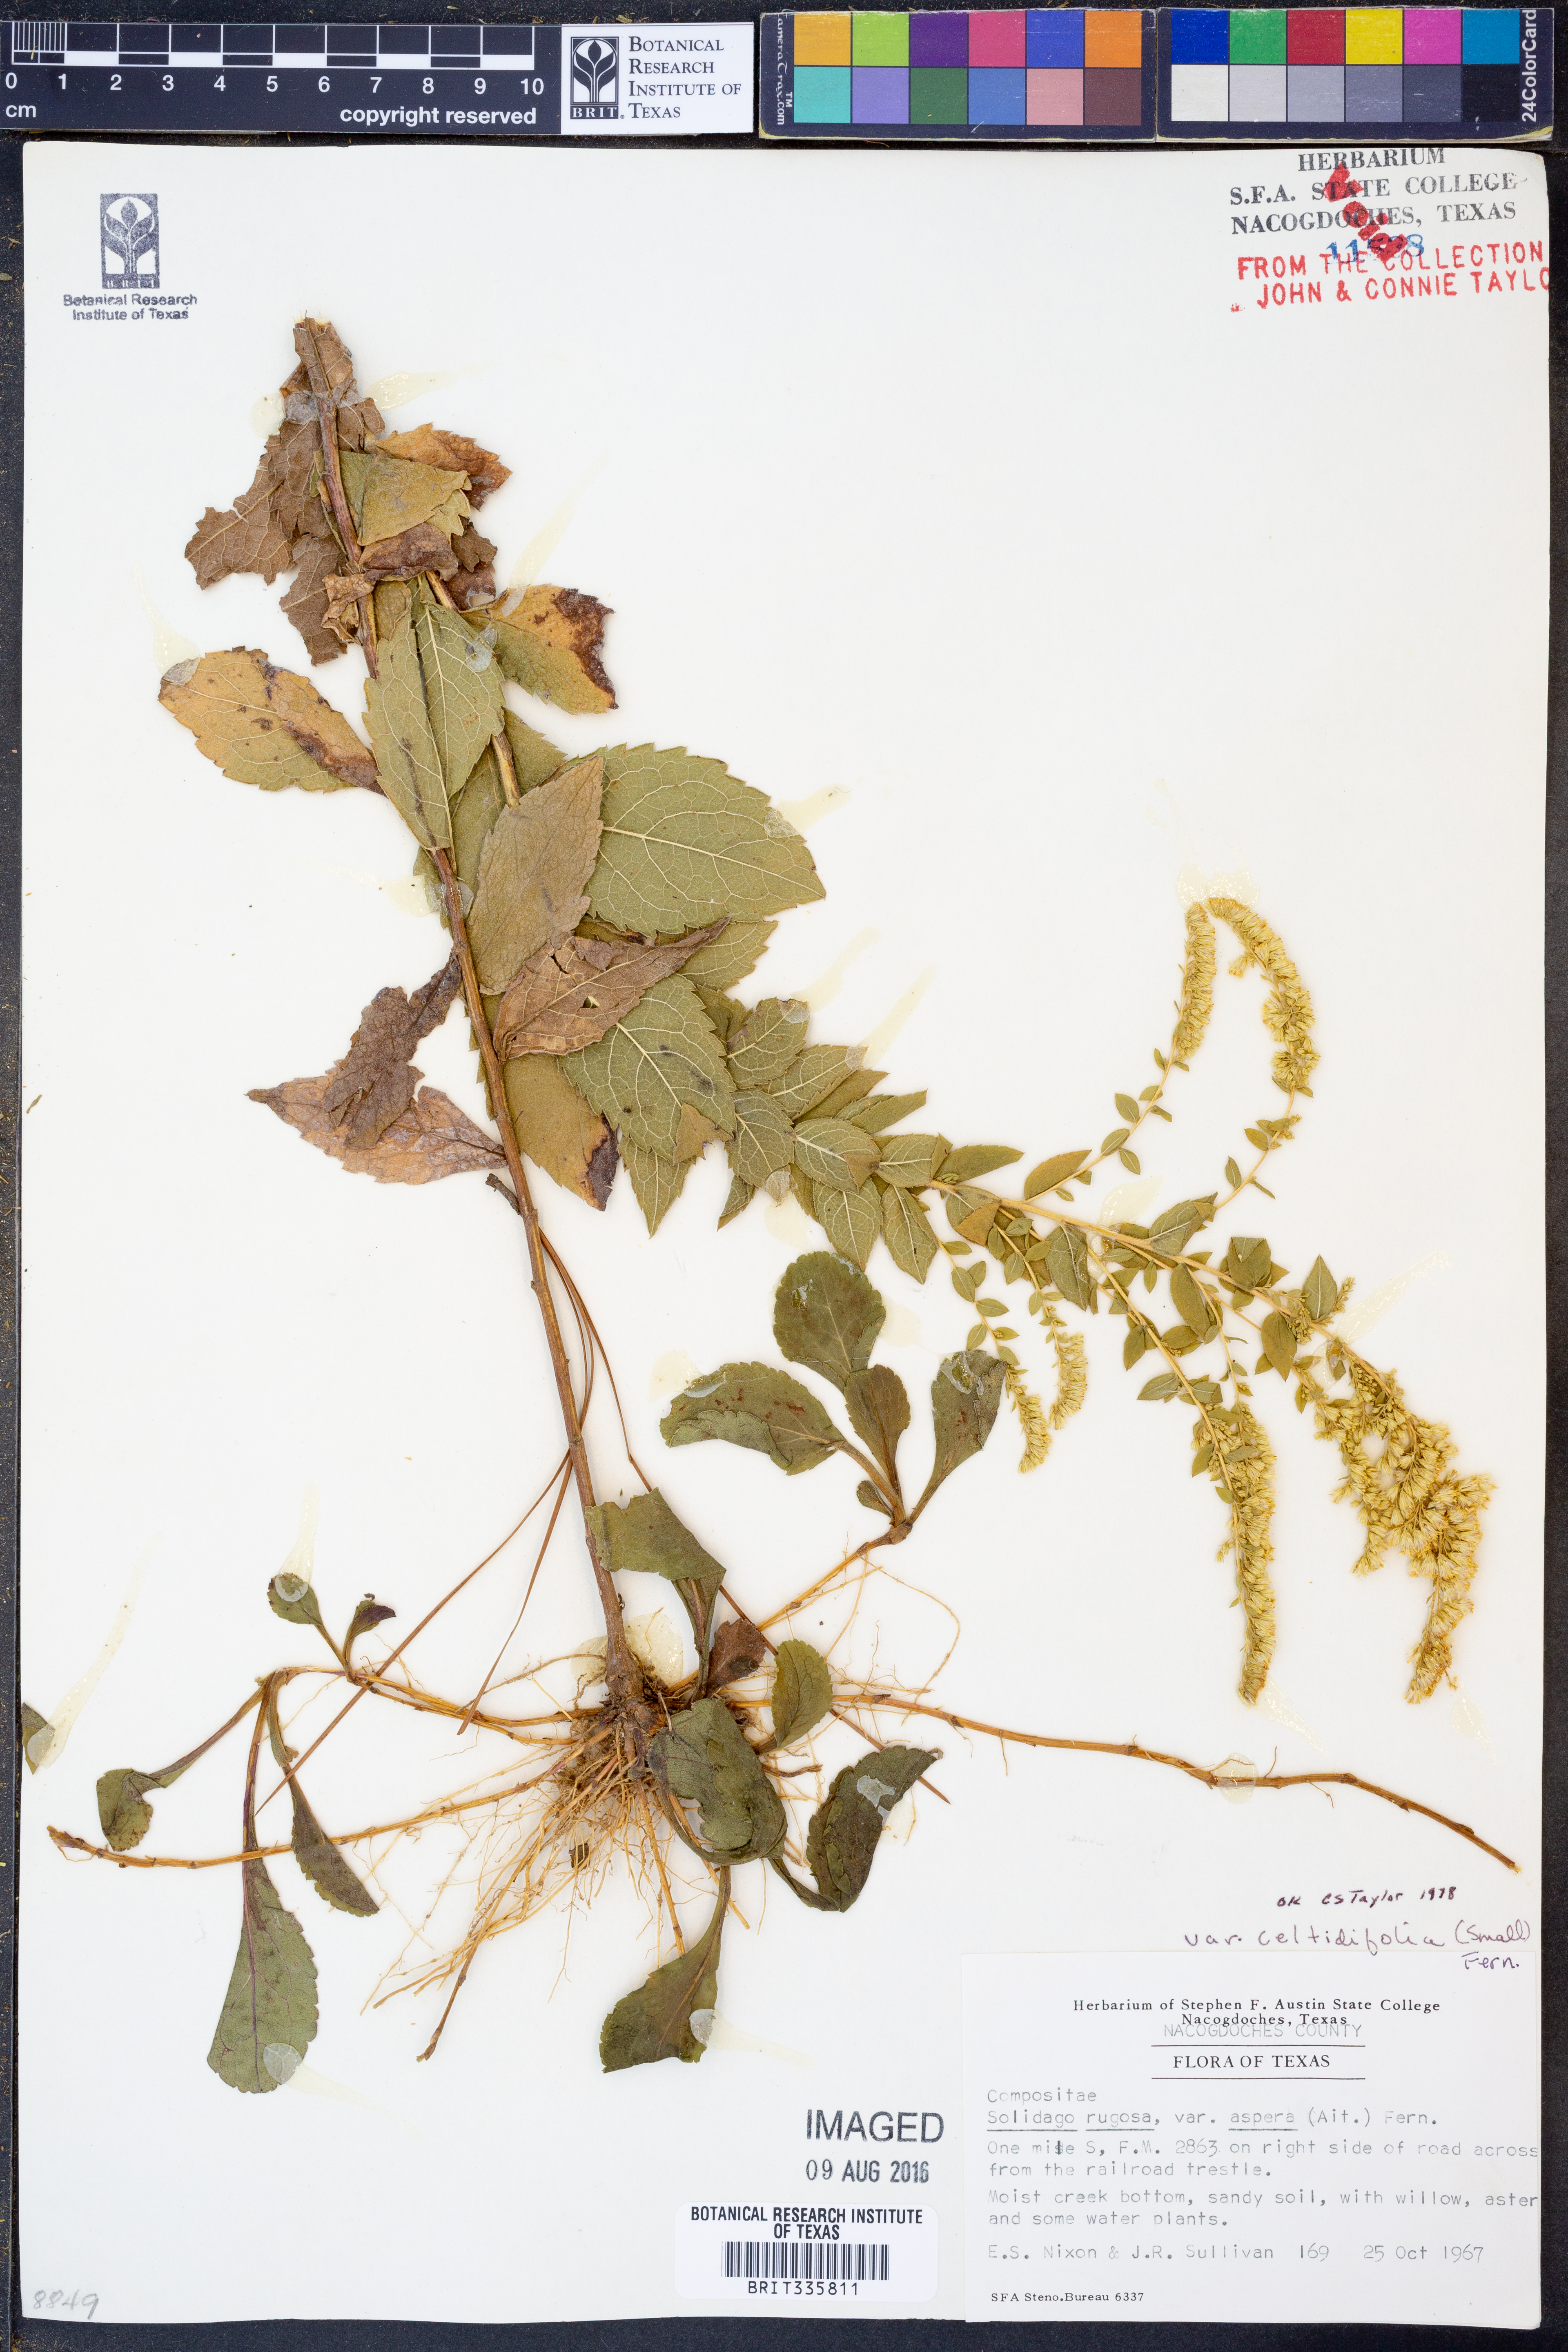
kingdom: Plantae
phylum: Tracheophyta
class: Magnoliopsida
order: Asterales
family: Asteraceae
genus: Solidago
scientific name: Solidago rugosa
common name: Rough-stemmed goldenrod
